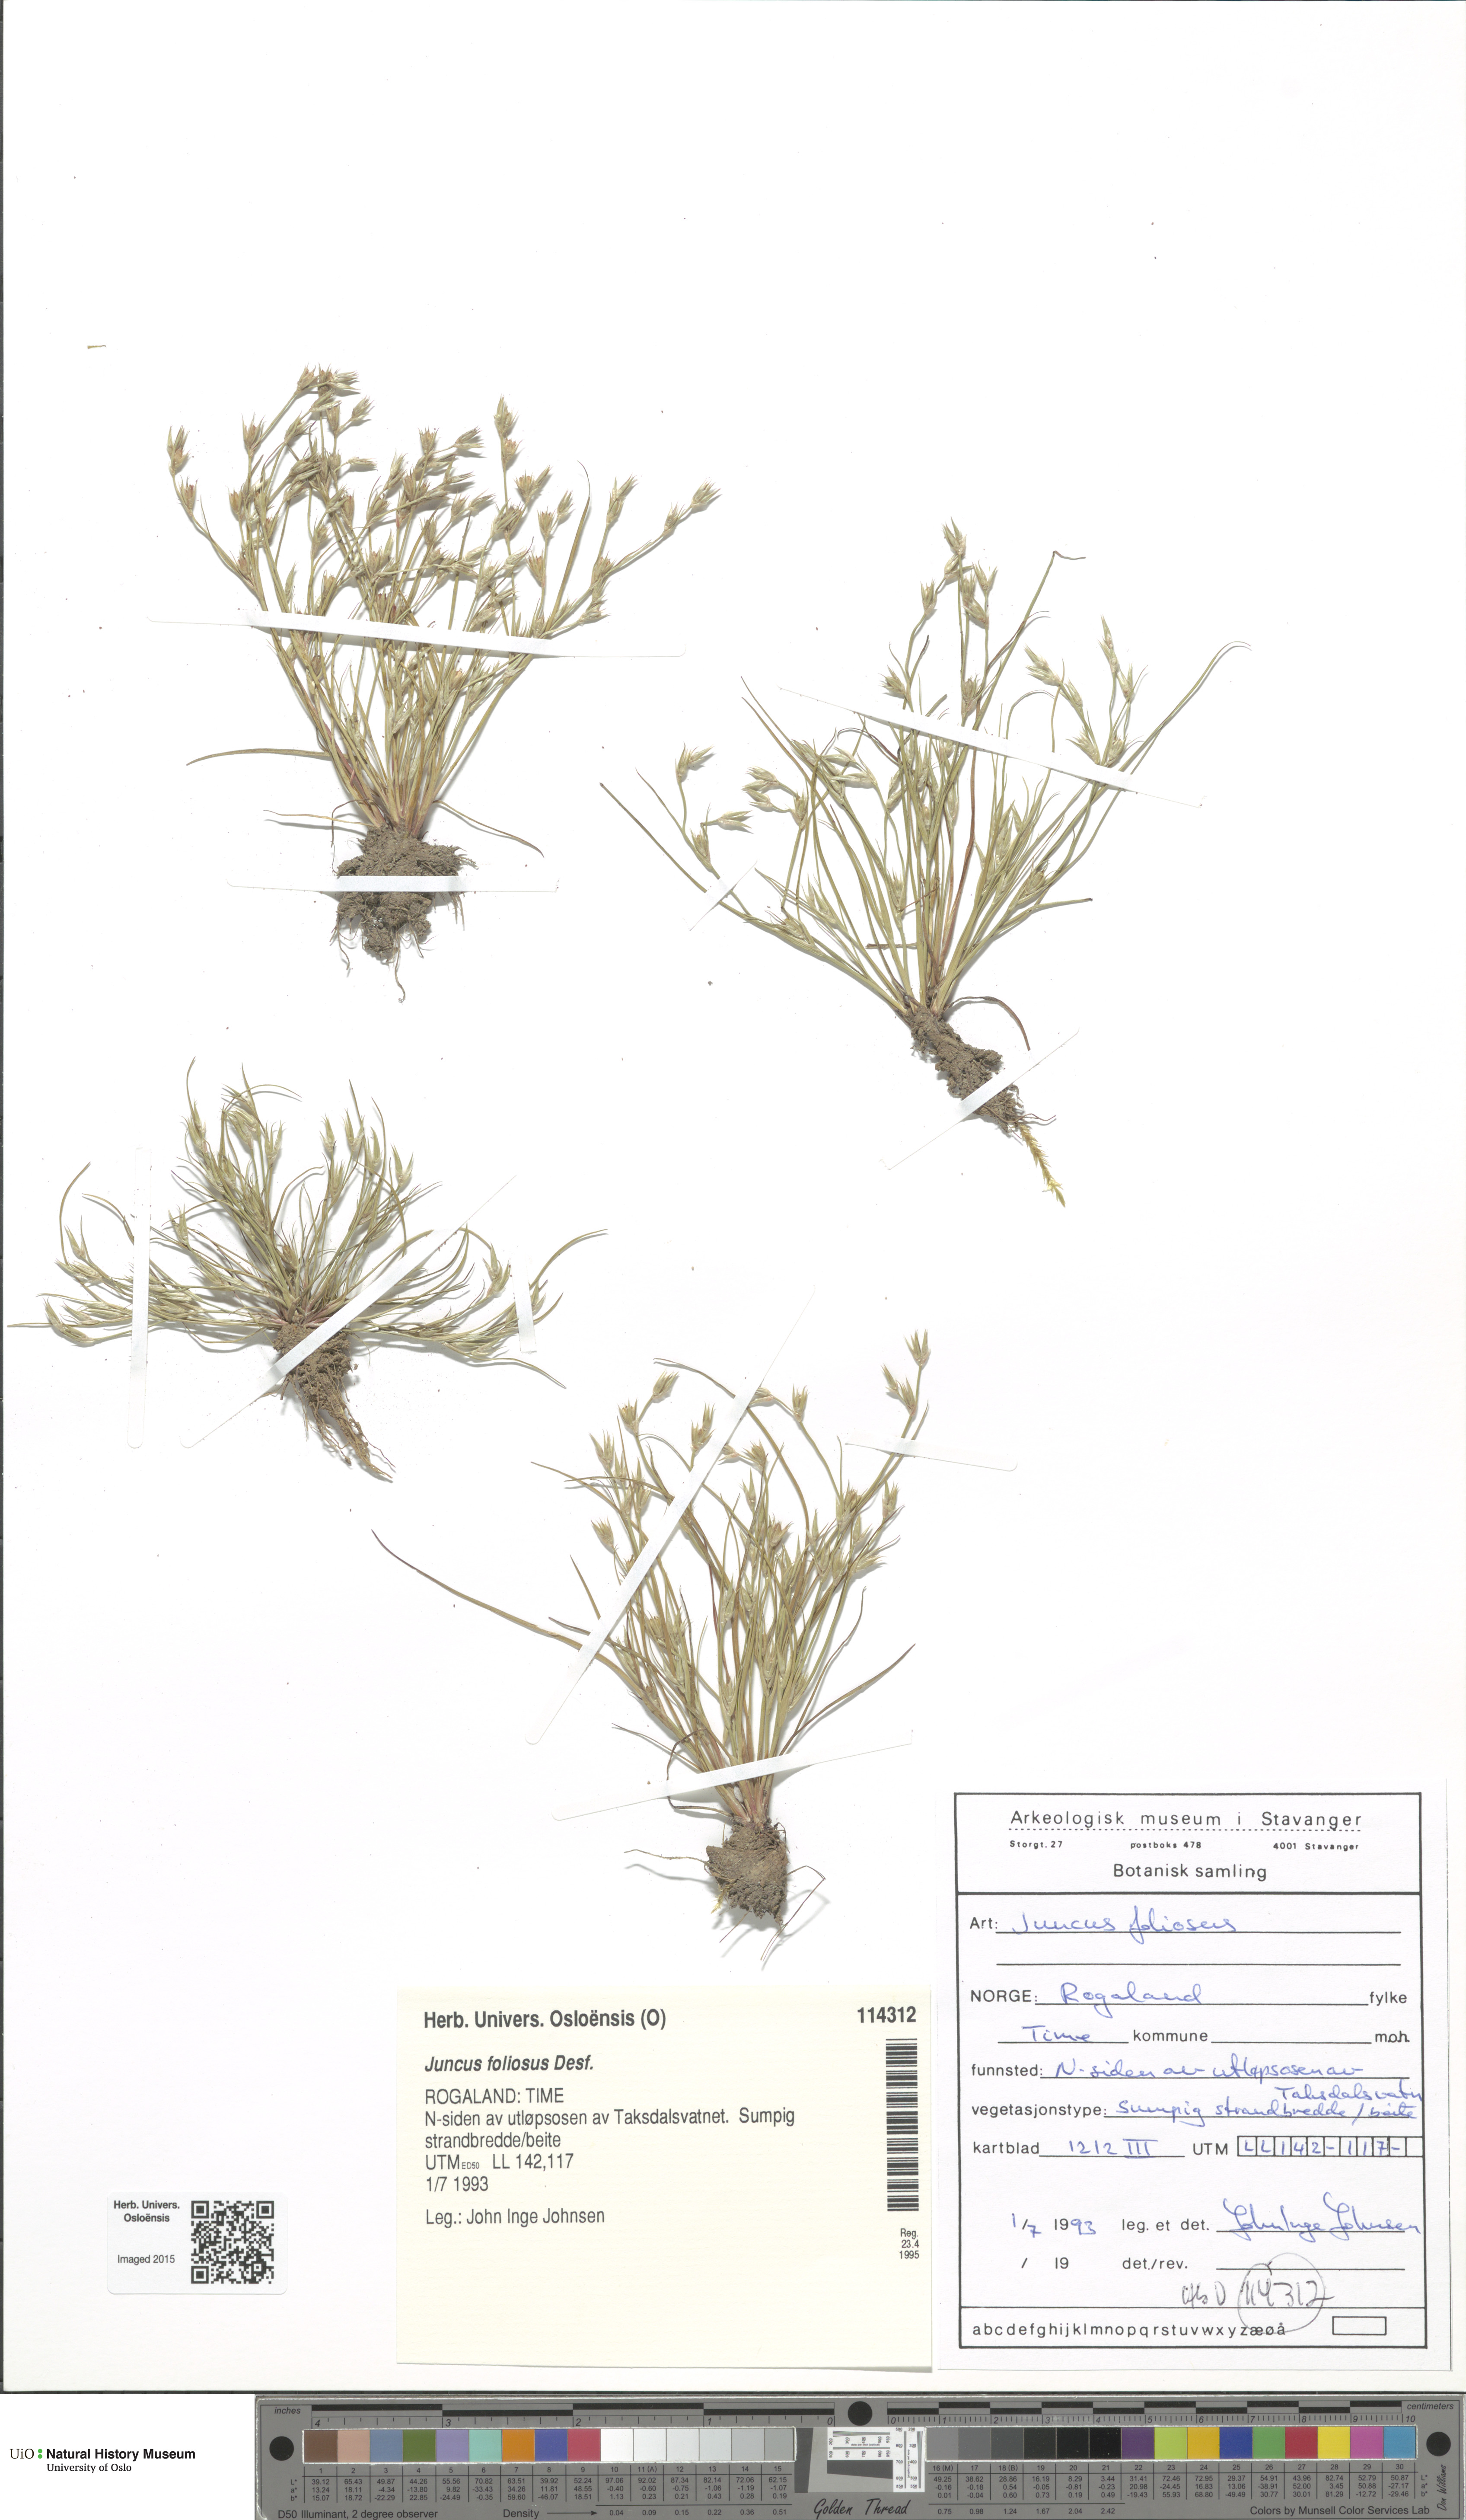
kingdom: Plantae
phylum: Tracheophyta
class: Liliopsida
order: Poales
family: Juncaceae
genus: Juncus
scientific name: Juncus foliosus
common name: Leafy rush
